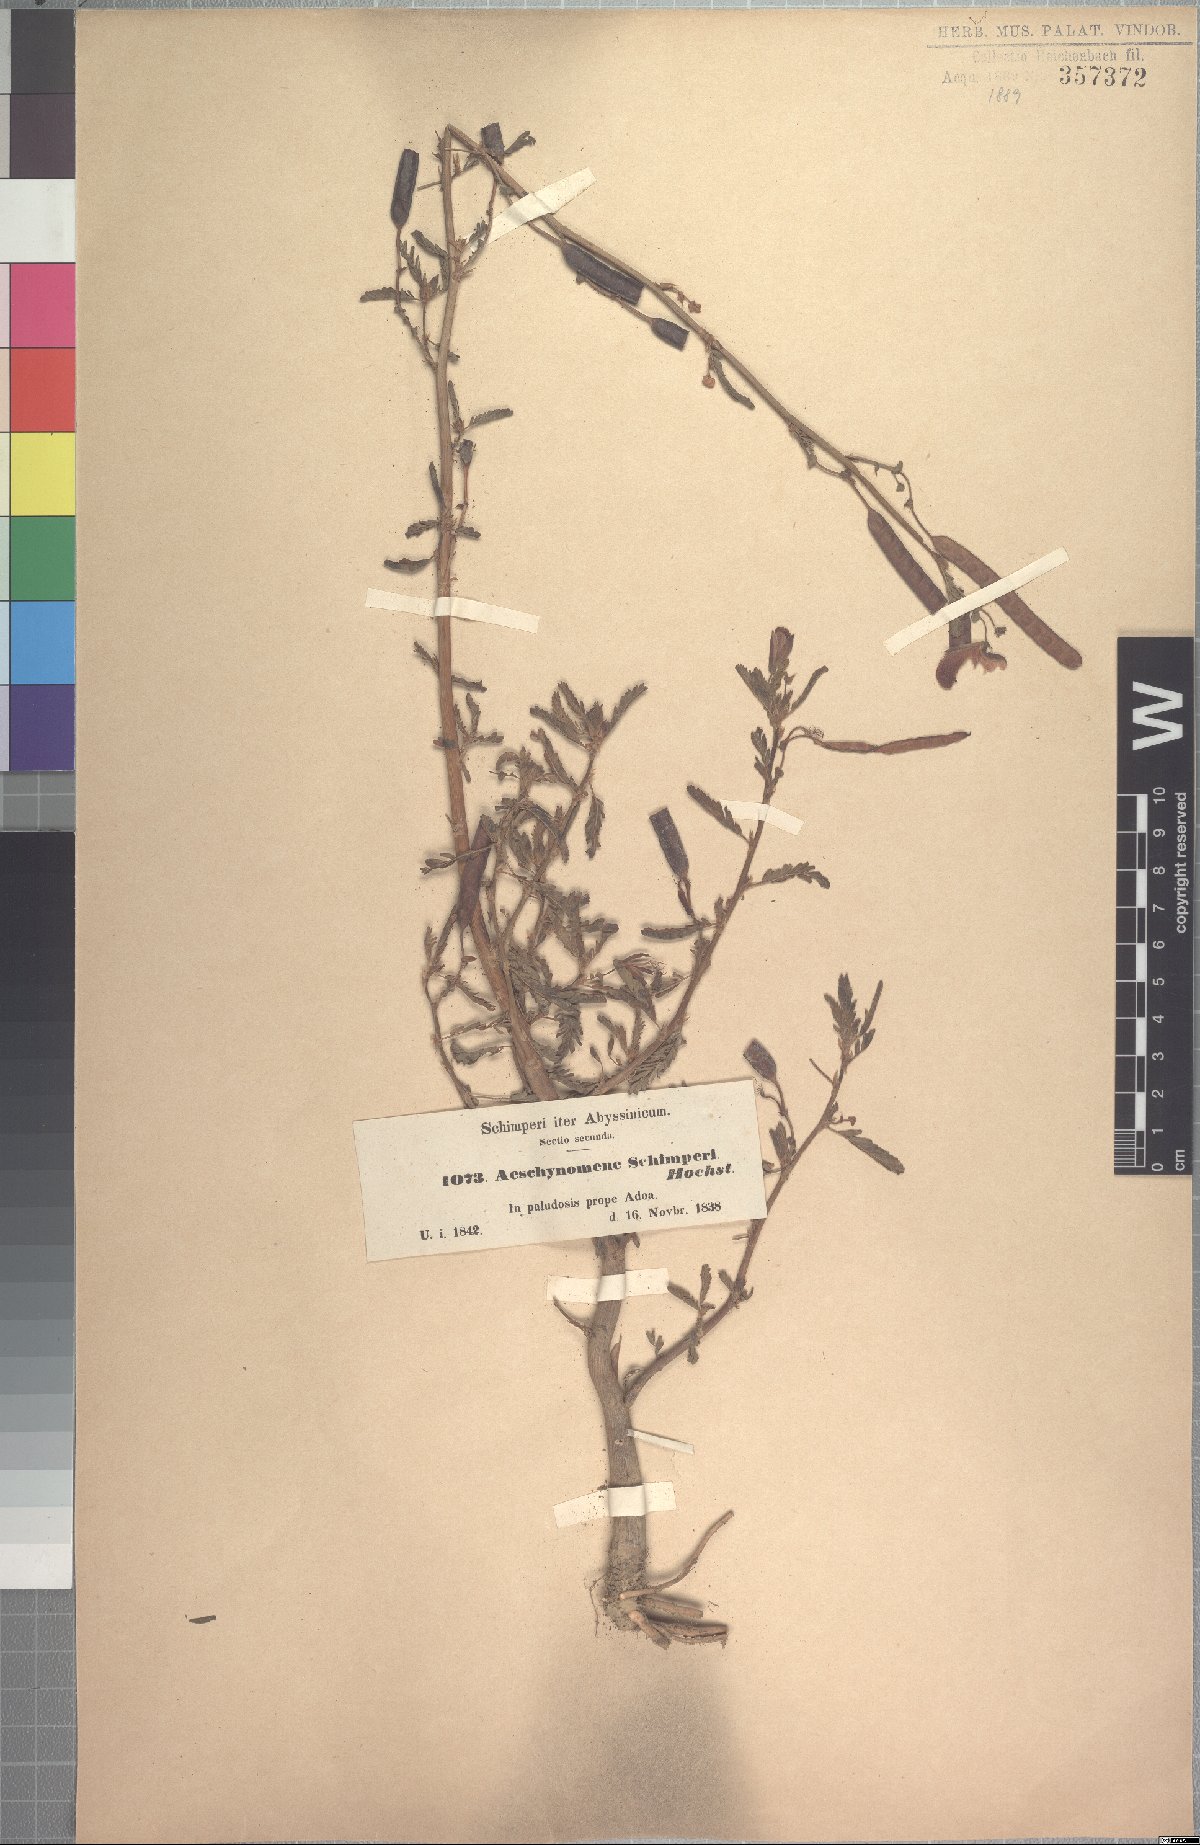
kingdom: Plantae
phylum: Tracheophyta
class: Magnoliopsida
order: Fabales
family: Fabaceae
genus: Aeschynomene
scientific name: Aeschynomene schimperi
